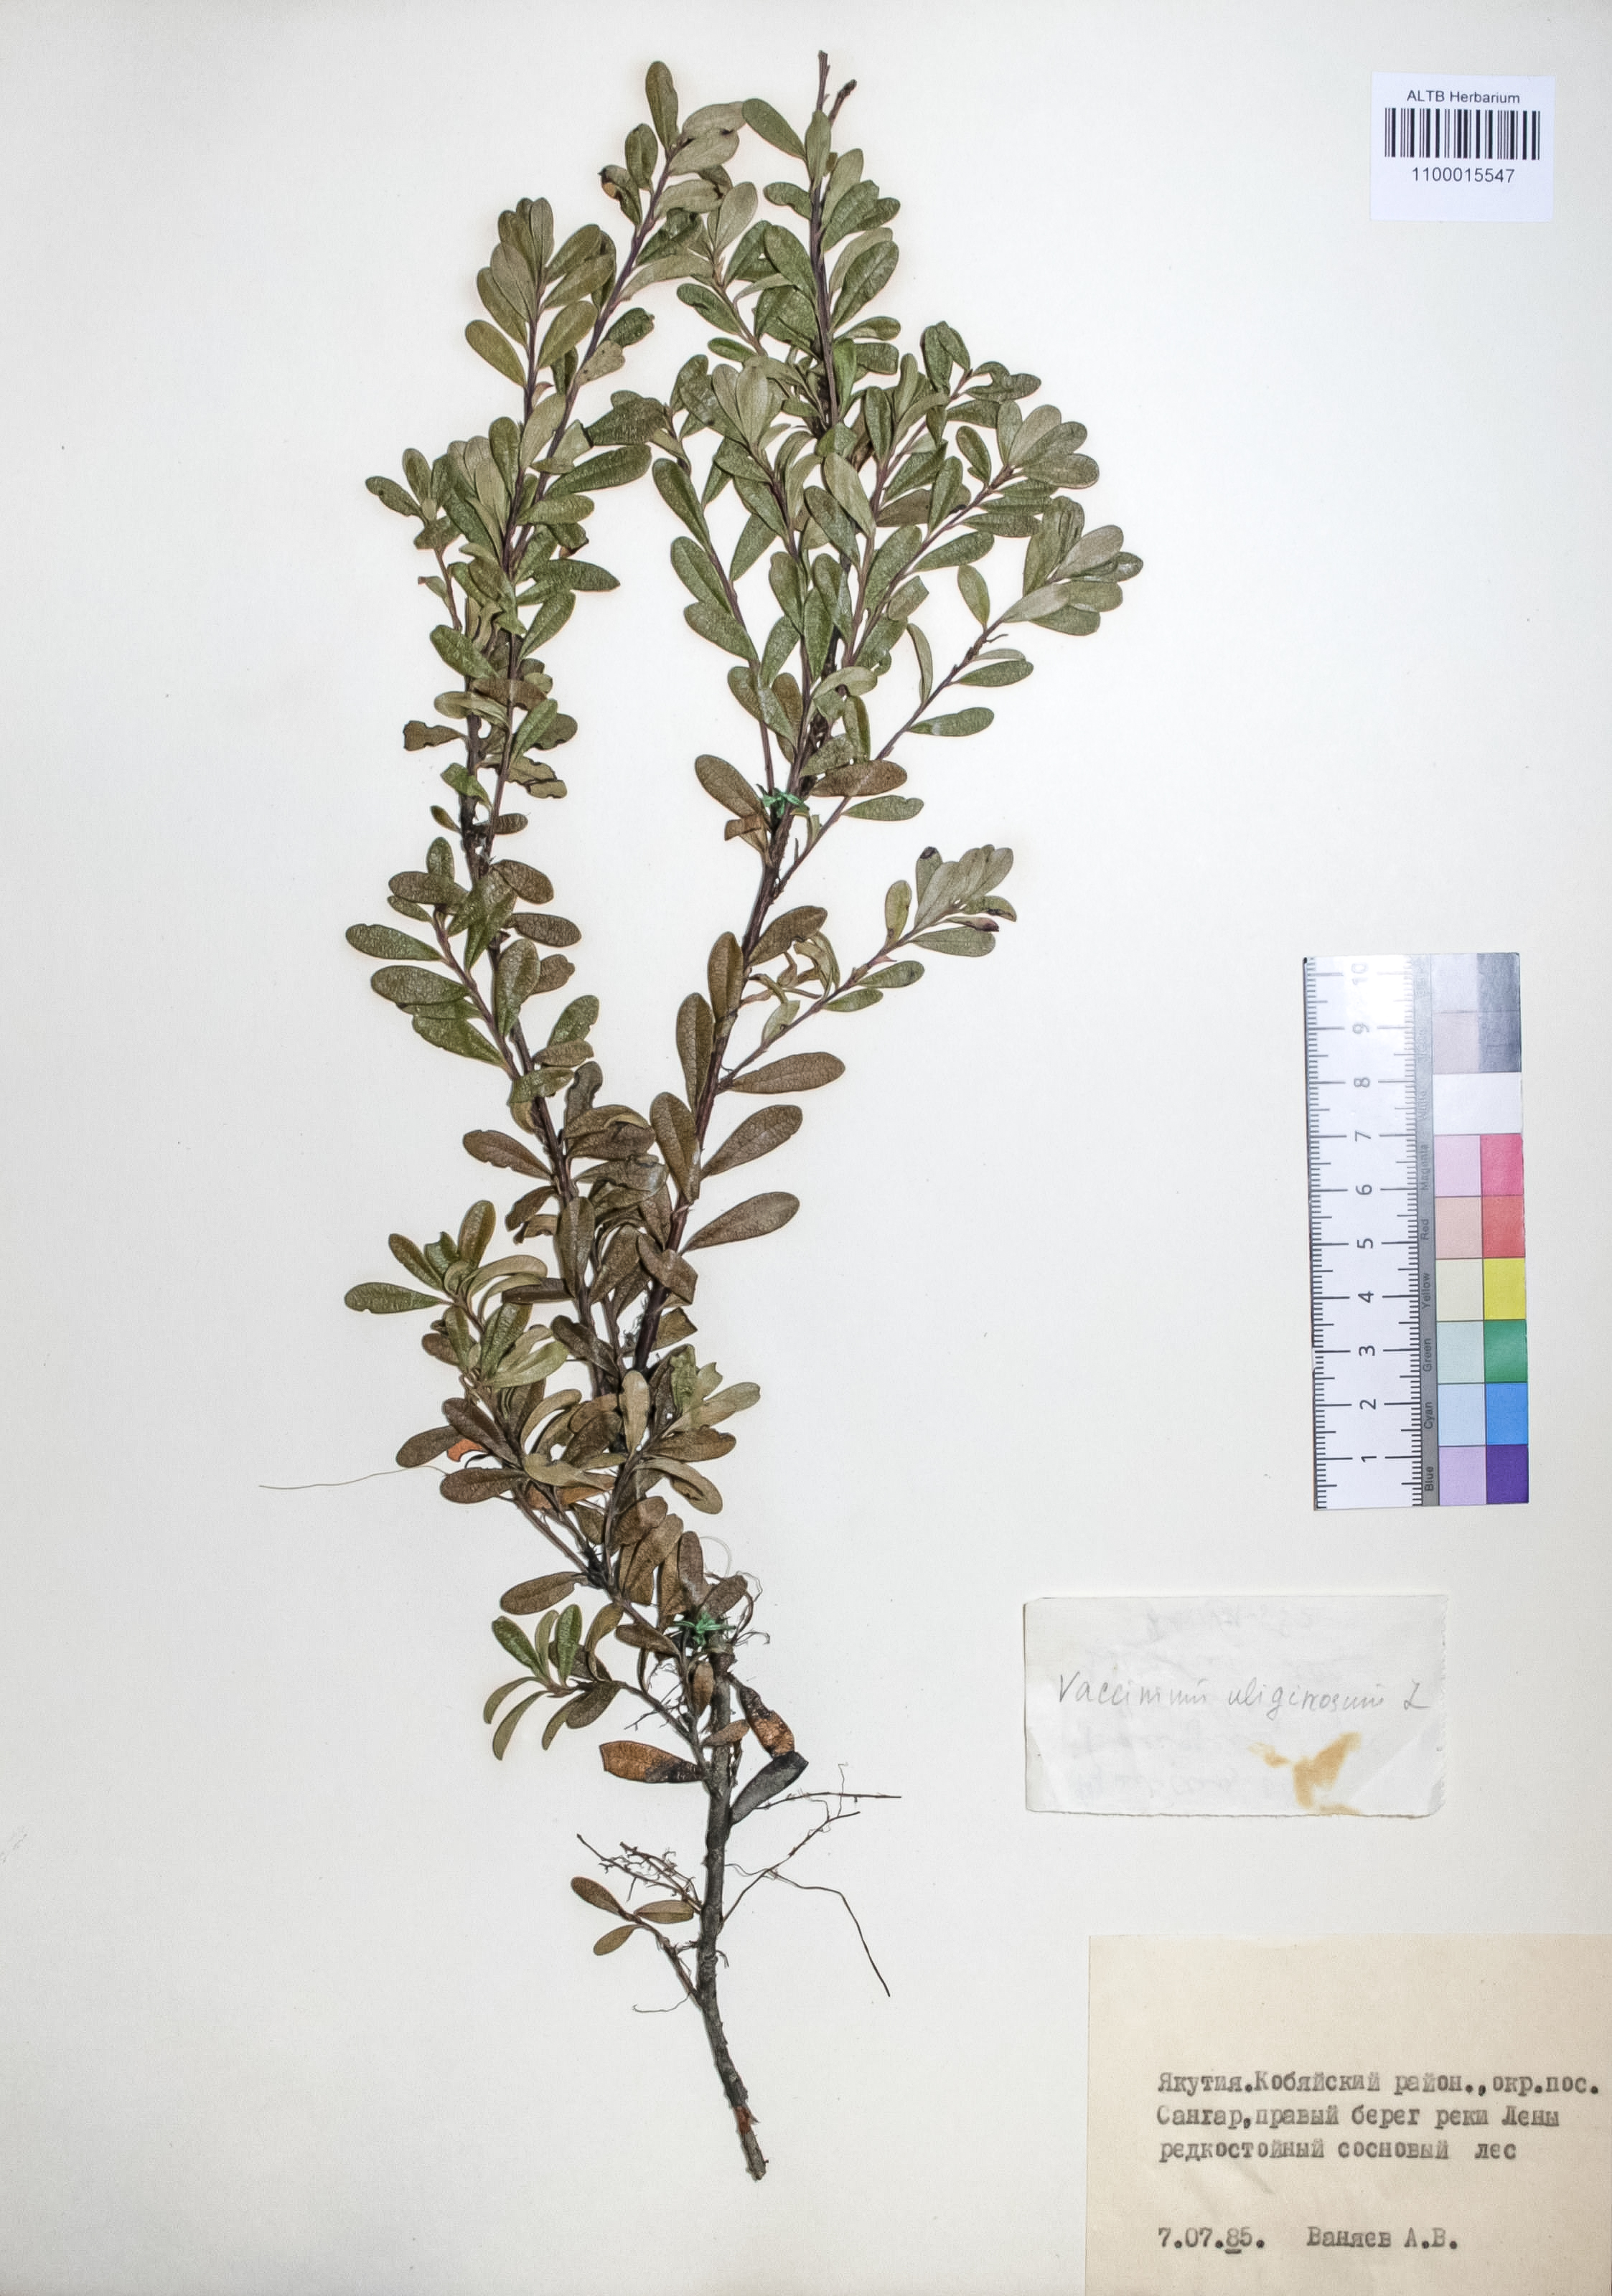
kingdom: Plantae
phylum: Tracheophyta
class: Magnoliopsida
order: Ericales
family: Ericaceae
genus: Vaccinium
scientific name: Vaccinium uliginosum
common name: Bog bilberry
